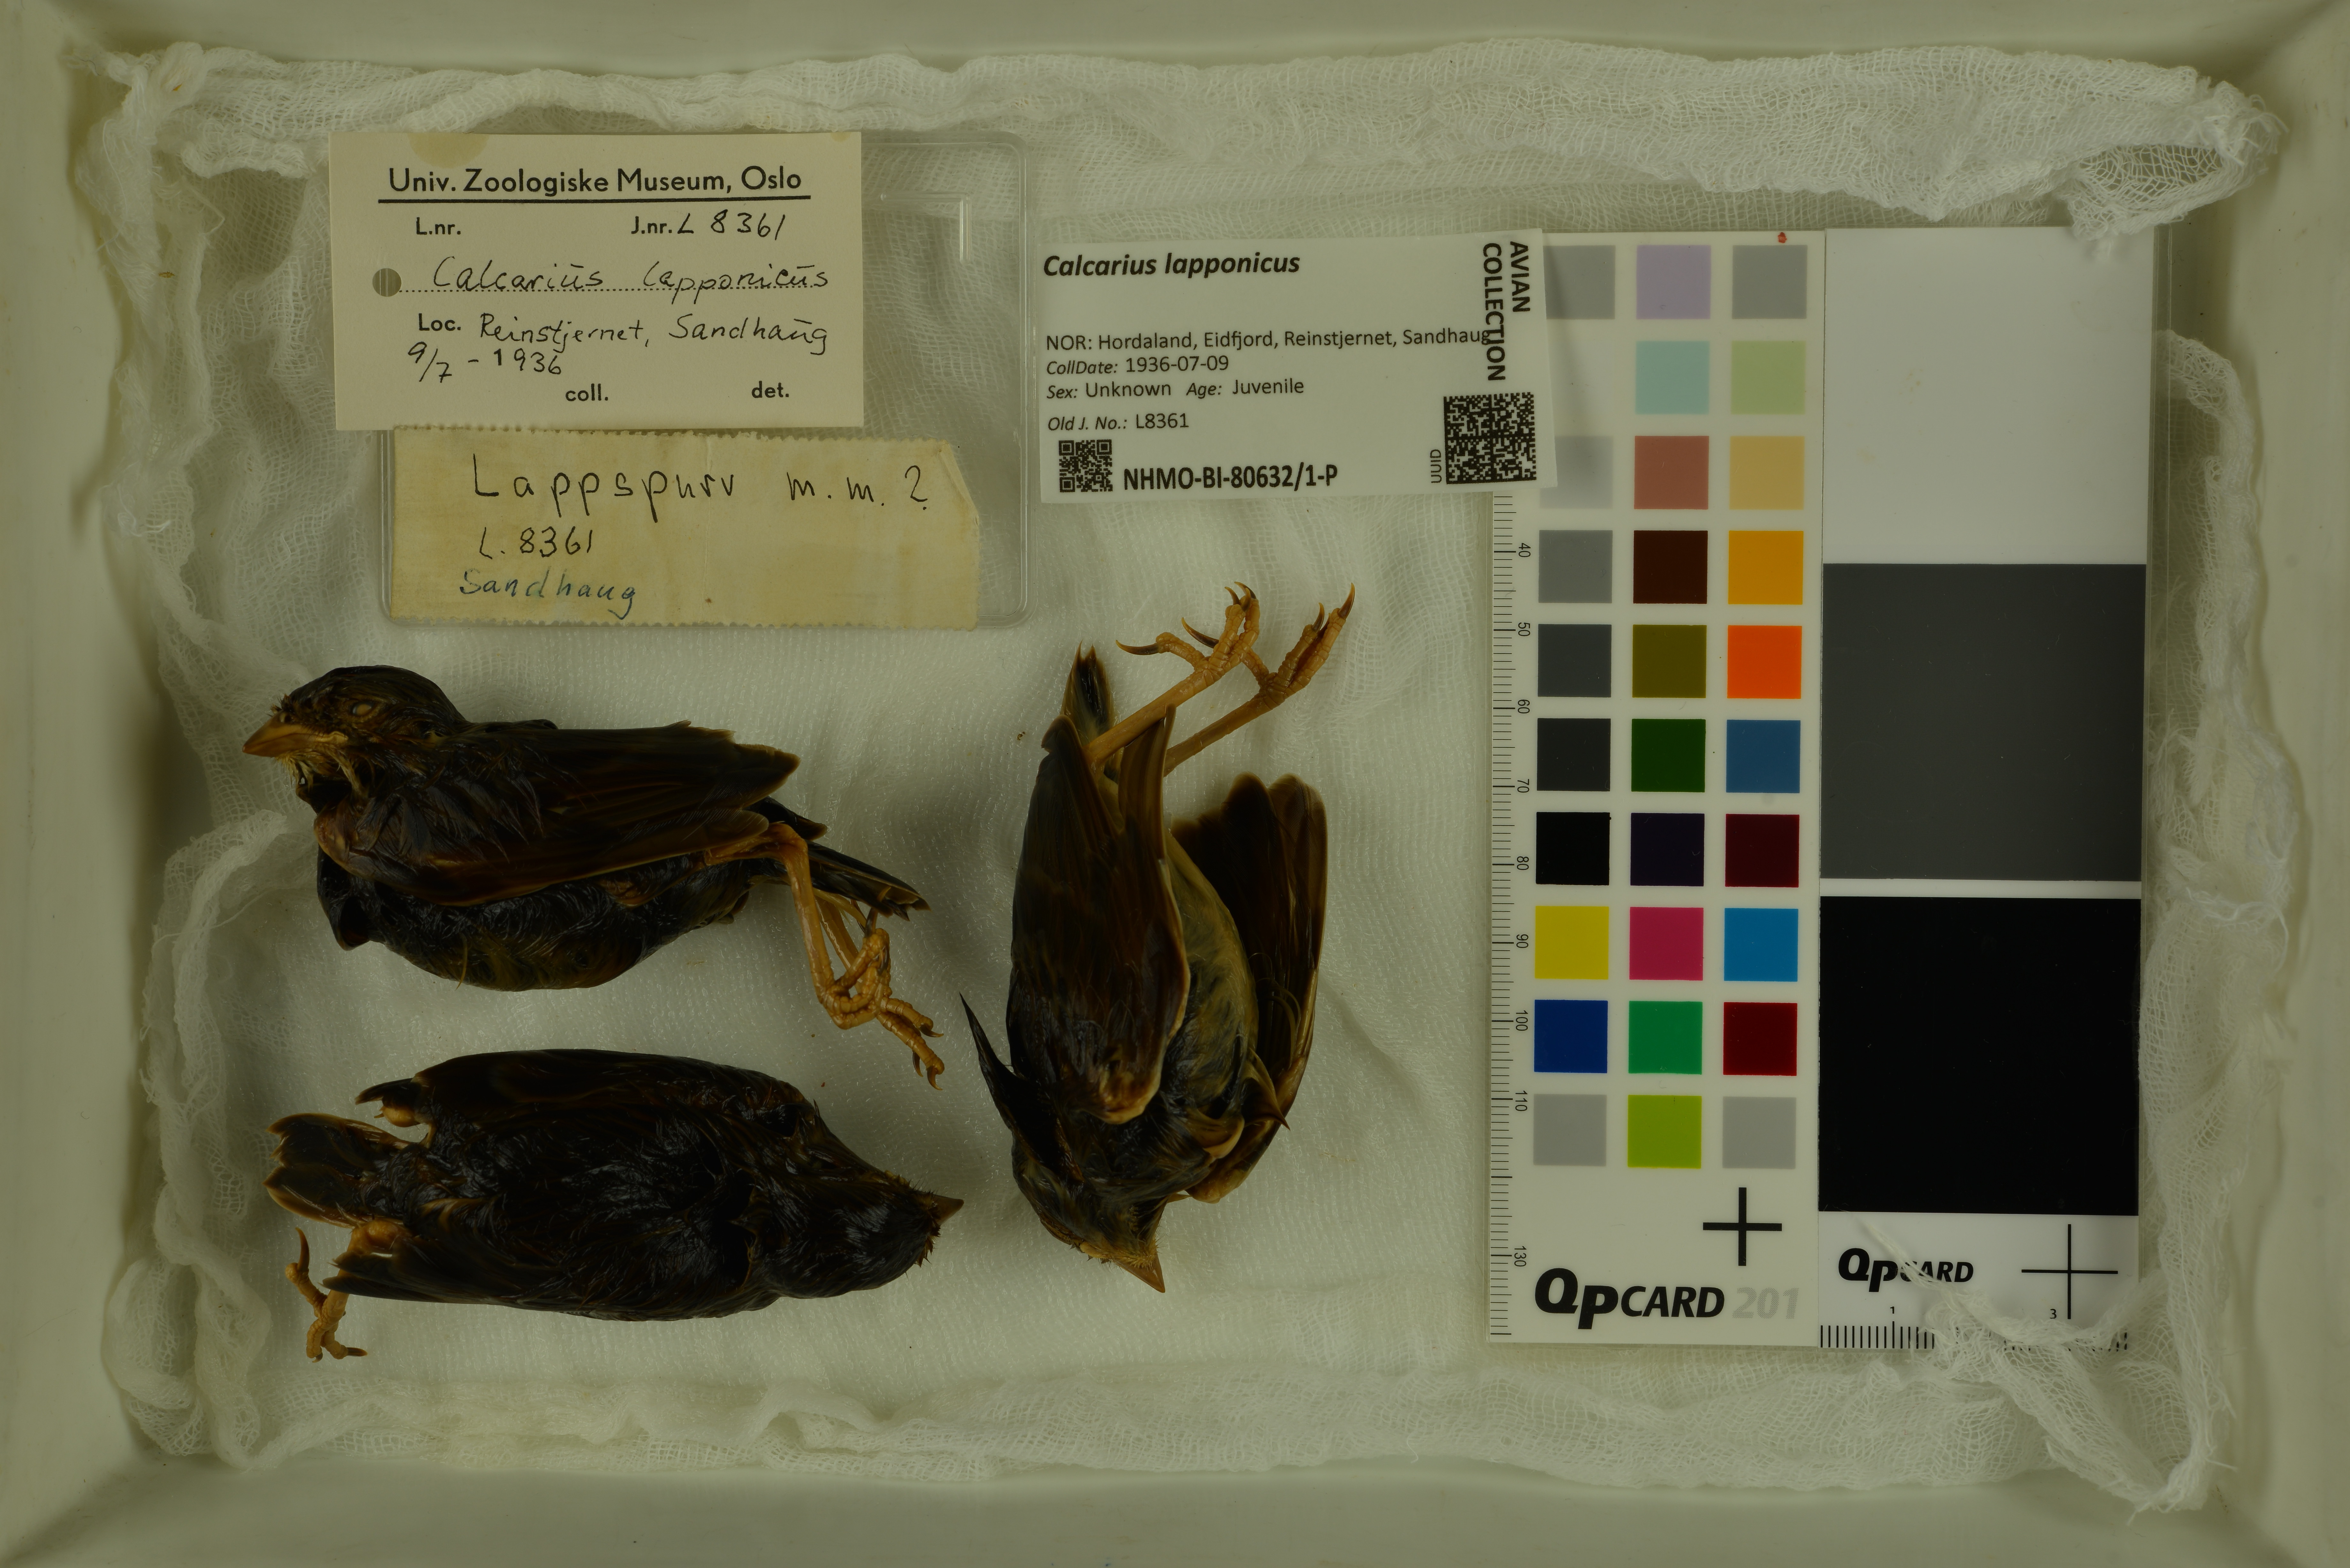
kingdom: Animalia
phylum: Chordata
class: Aves
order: Passeriformes
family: Calcariidae
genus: Calcarius
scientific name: Calcarius lapponicus
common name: Lapland longspur
